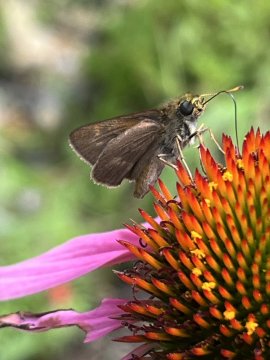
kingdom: Animalia
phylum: Arthropoda
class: Insecta
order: Lepidoptera
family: Hesperiidae
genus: Polites
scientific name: Polites egeremet
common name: Northern Broken-Dash
